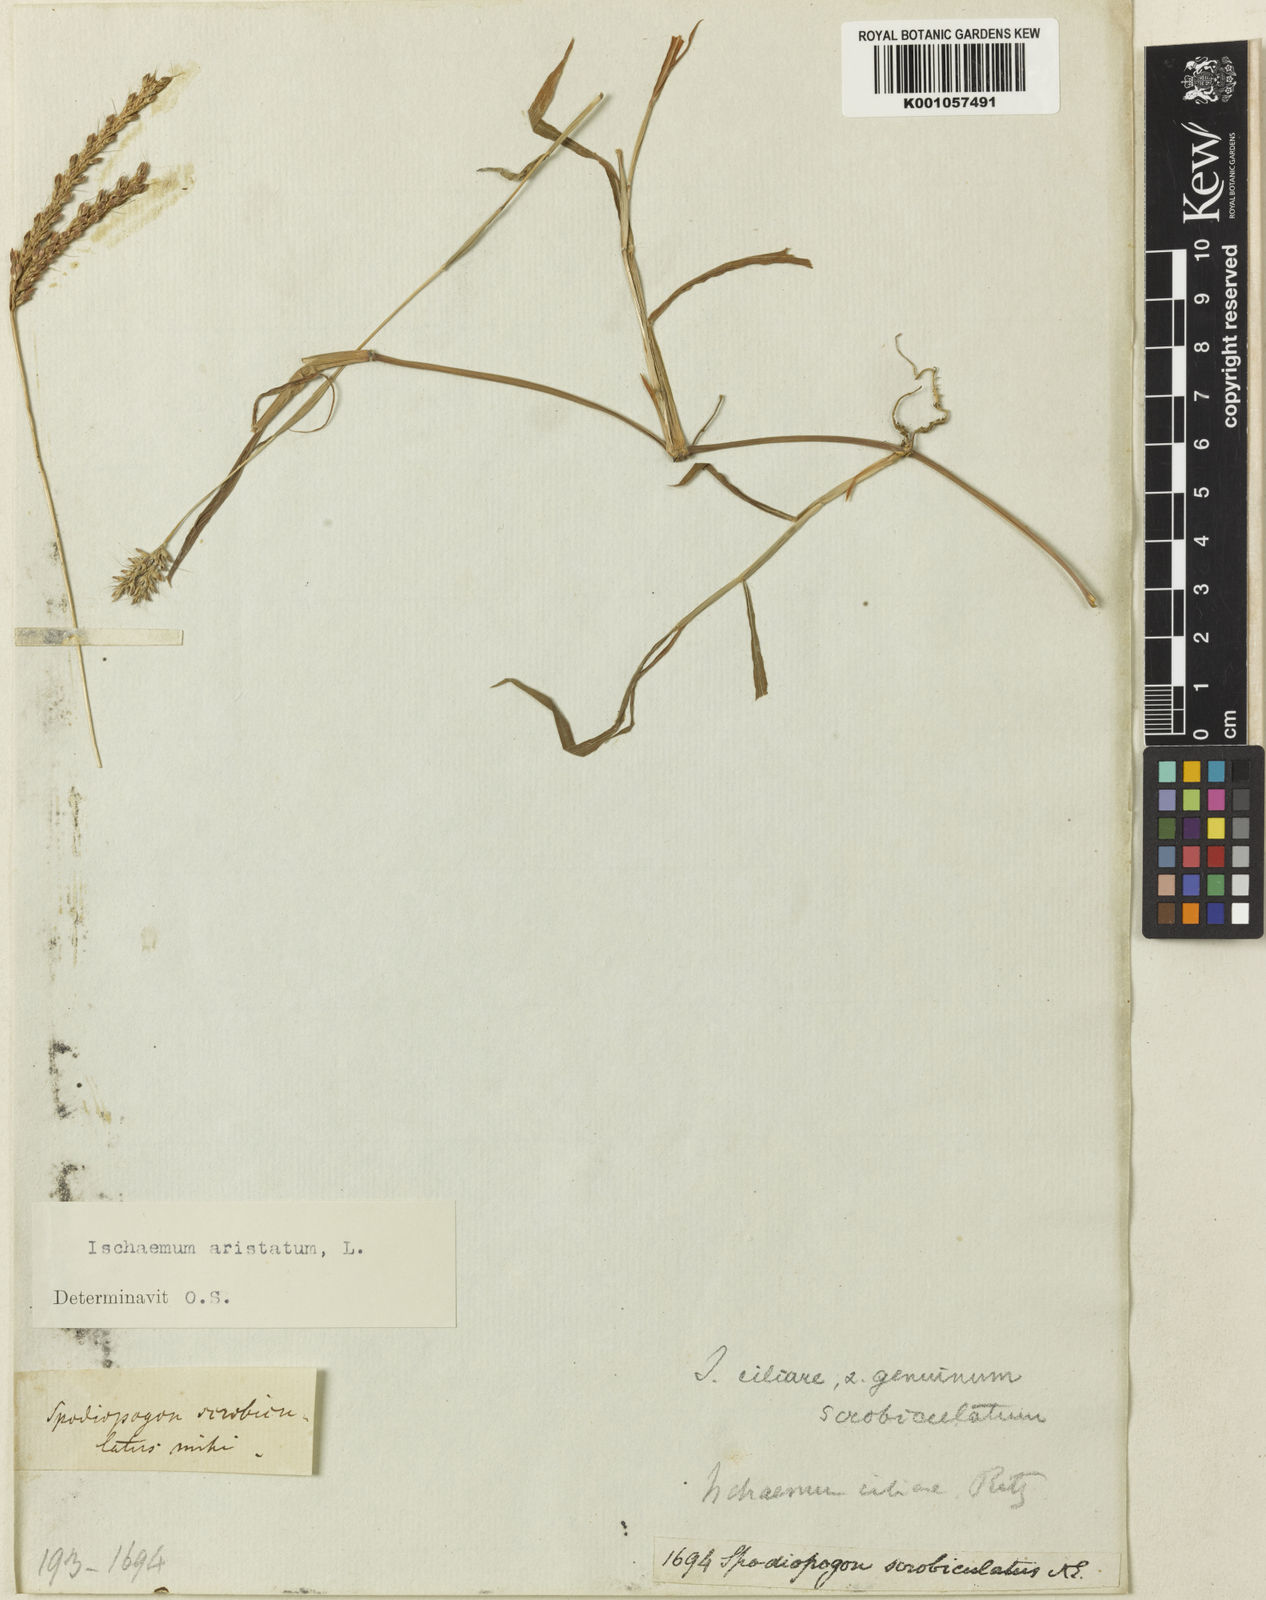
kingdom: Plantae
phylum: Tracheophyta
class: Liliopsida
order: Poales
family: Poaceae
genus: Polytrias
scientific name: Polytrias indica
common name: Indian murainagrass
